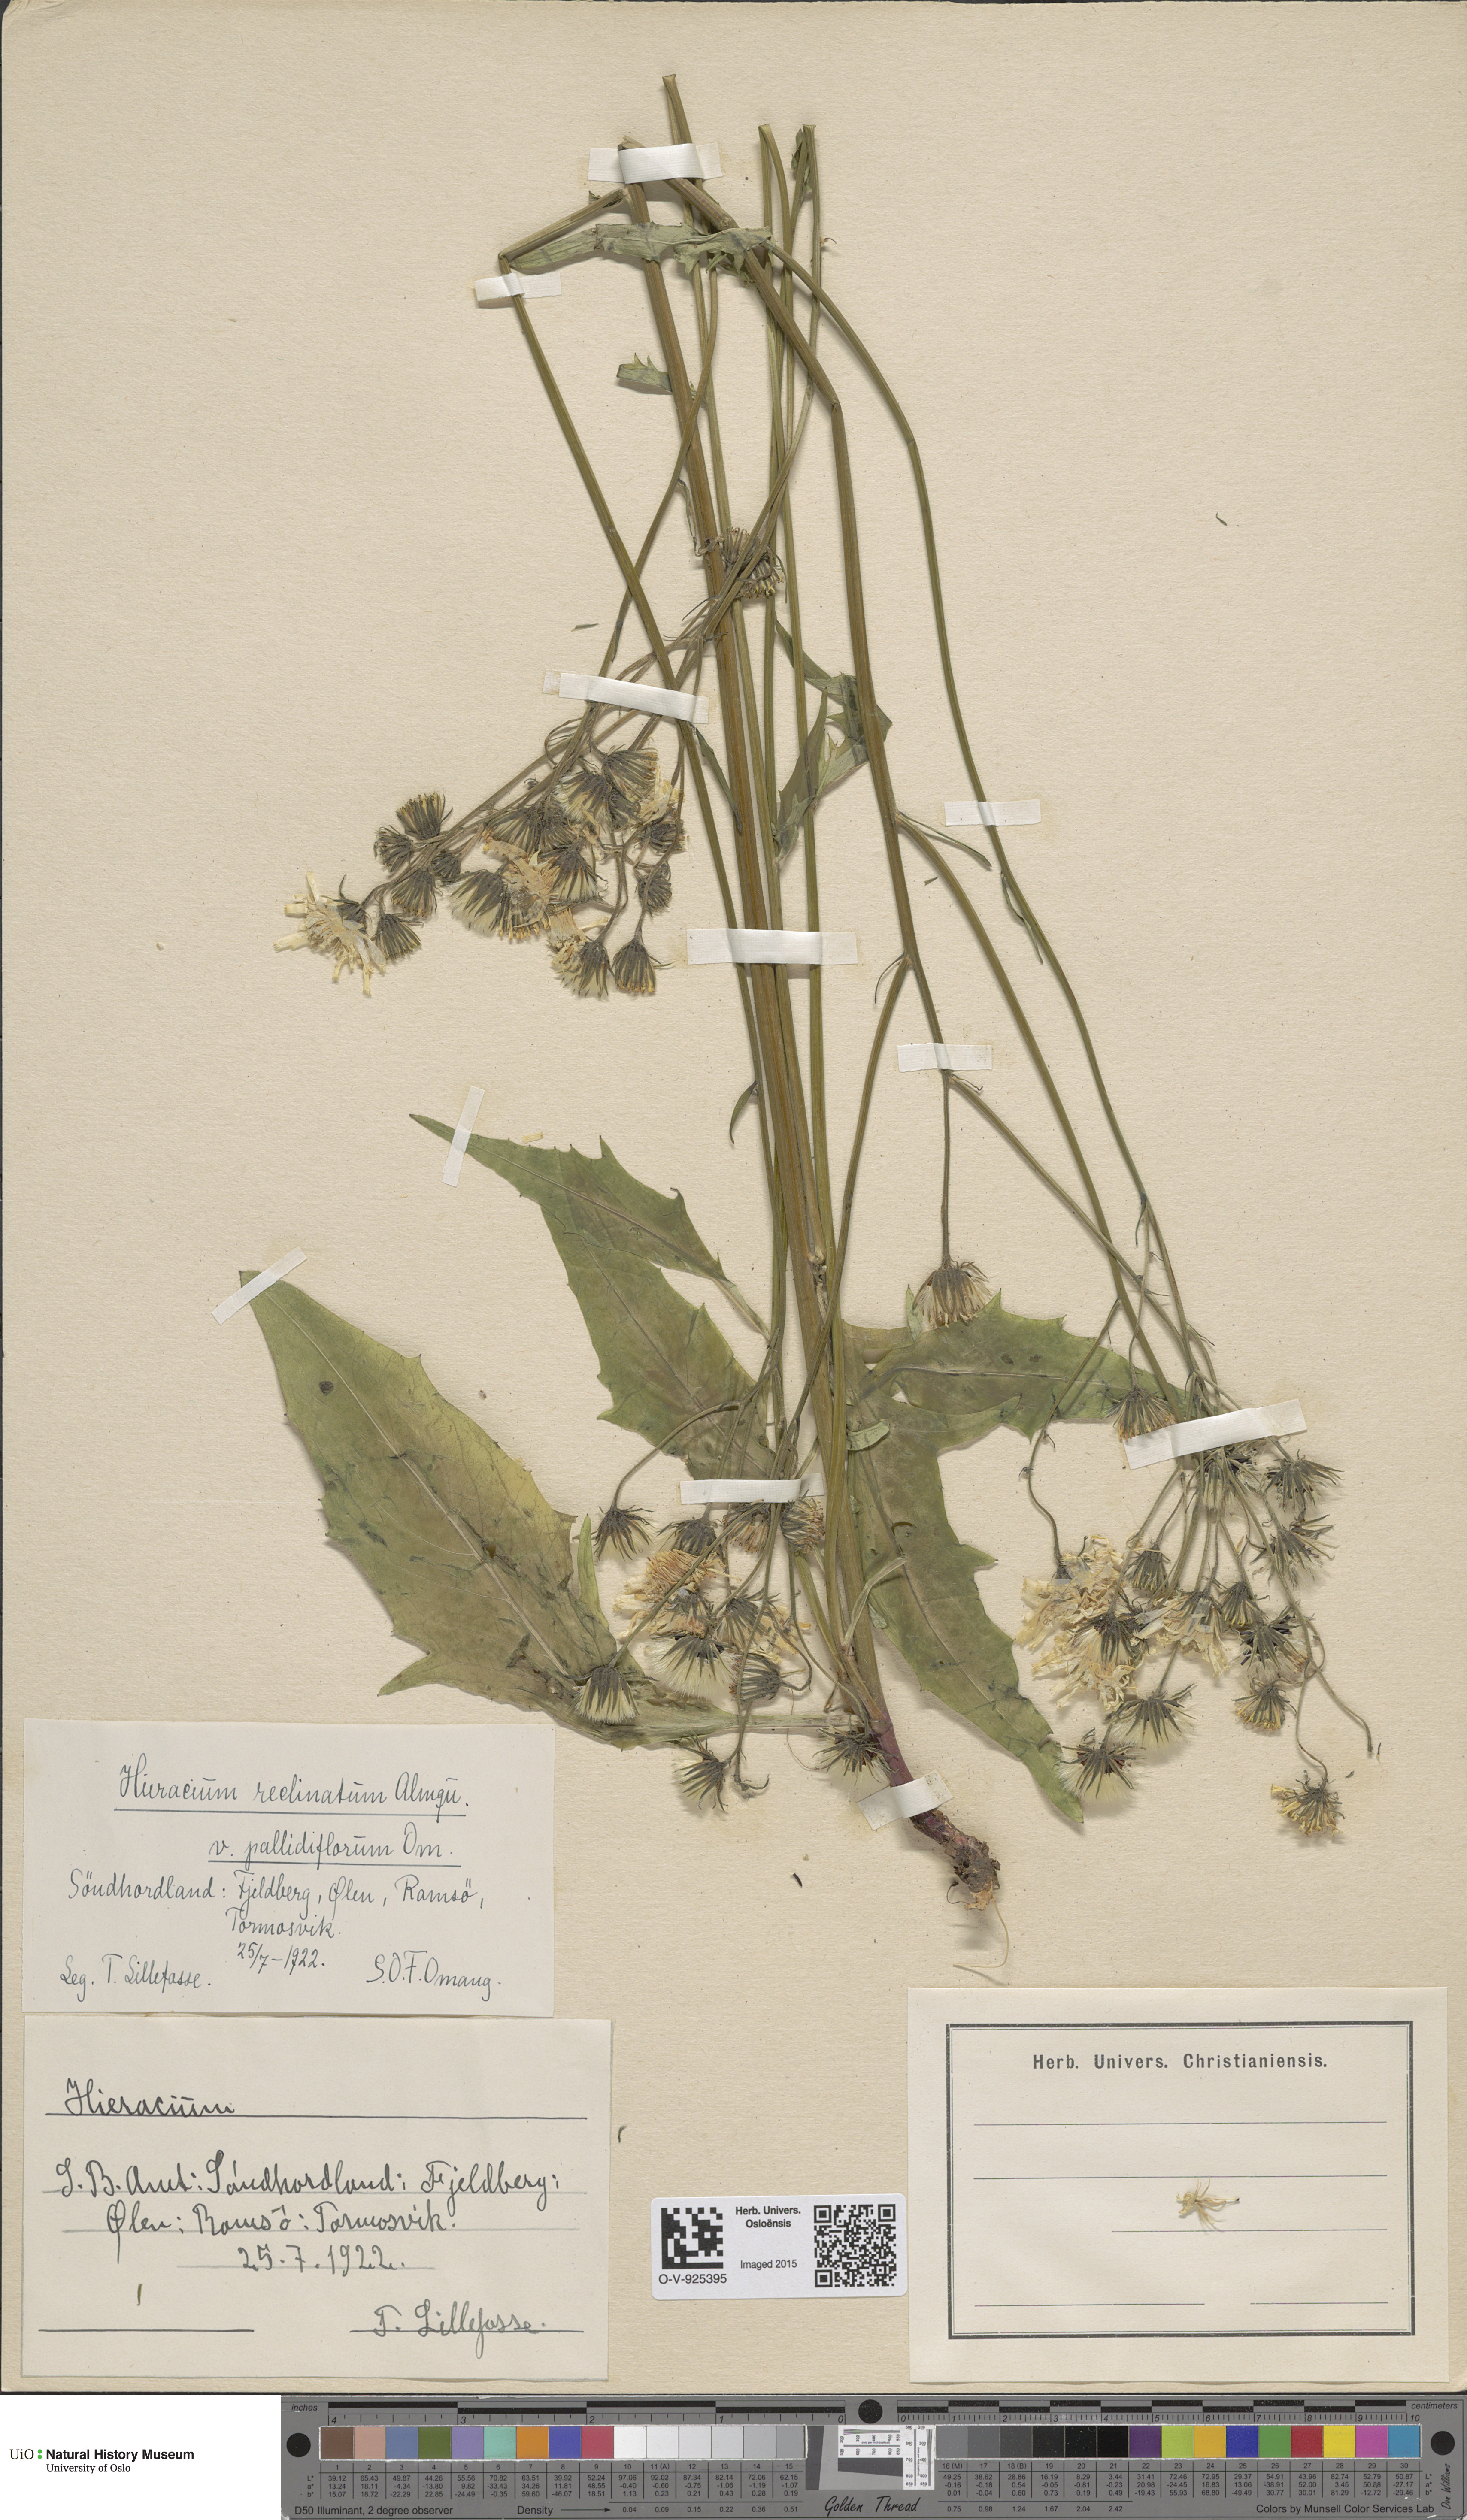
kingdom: Plantae
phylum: Tracheophyta
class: Magnoliopsida
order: Asterales
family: Asteraceae
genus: Hieracium
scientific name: Hieracium caesium
